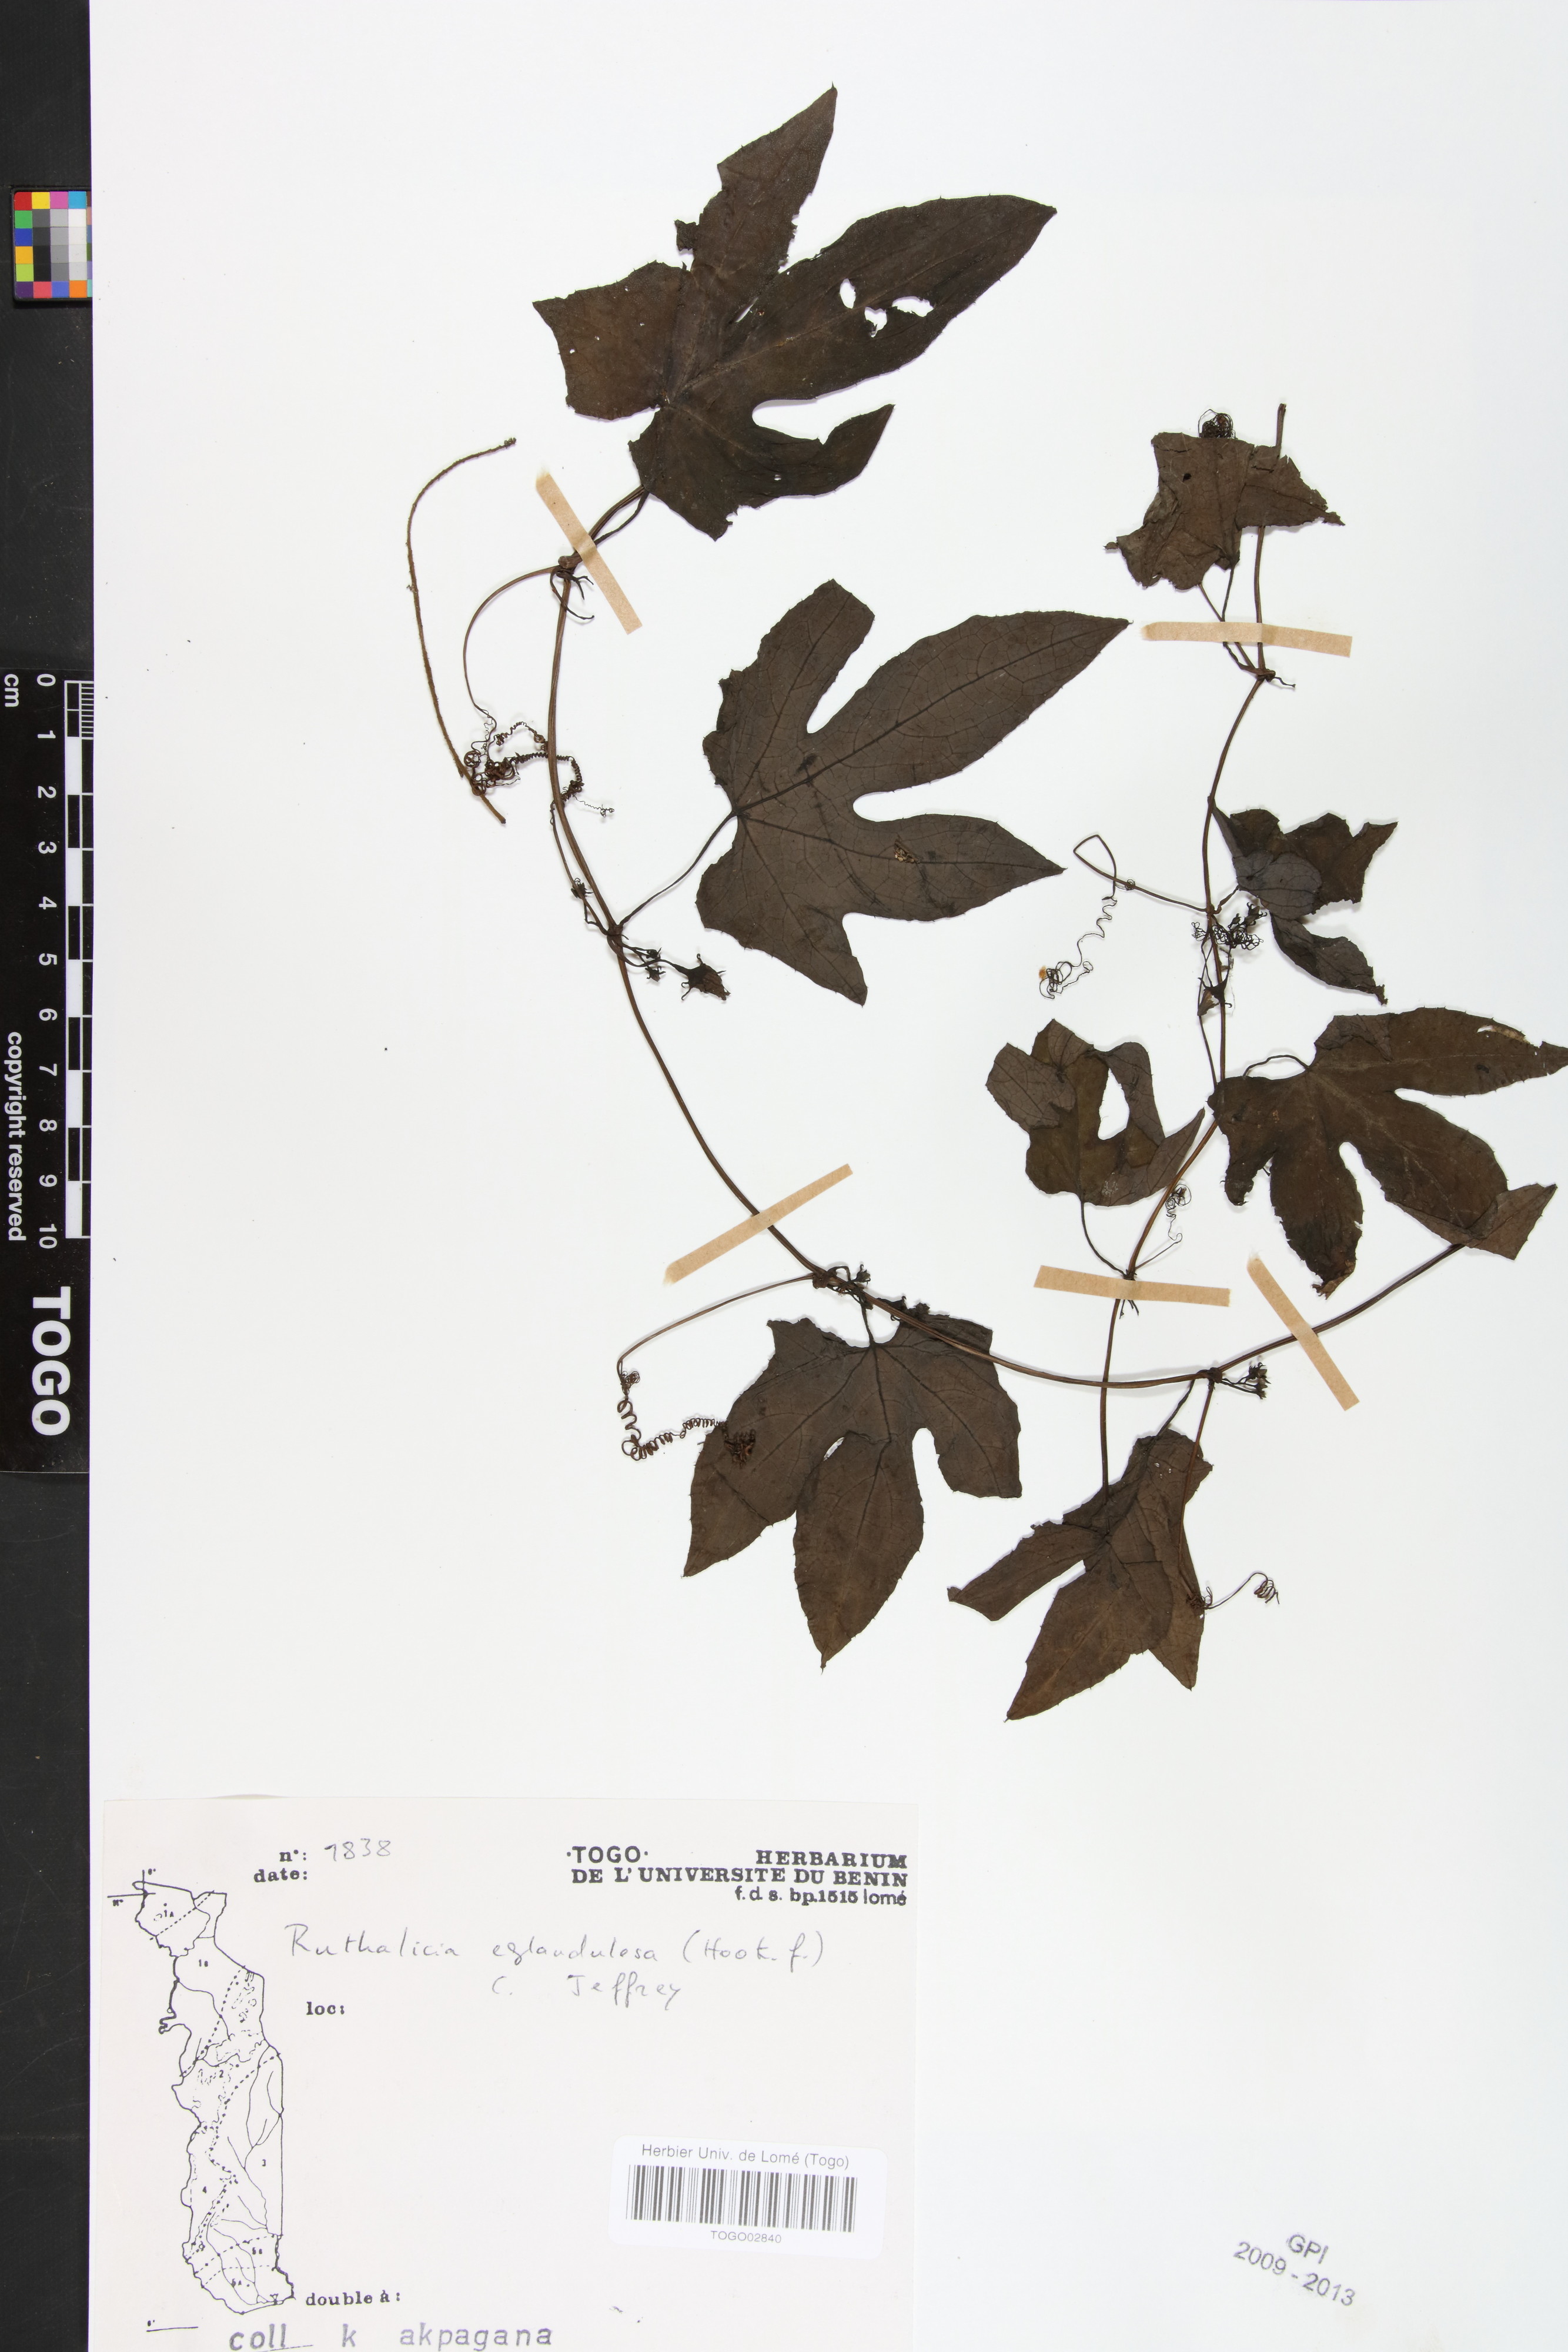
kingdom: Plantae
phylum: Tracheophyta
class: Magnoliopsida
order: Cucurbitales
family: Cucurbitaceae
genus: Ruthalicia
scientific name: Ruthalicia eglandulosa
